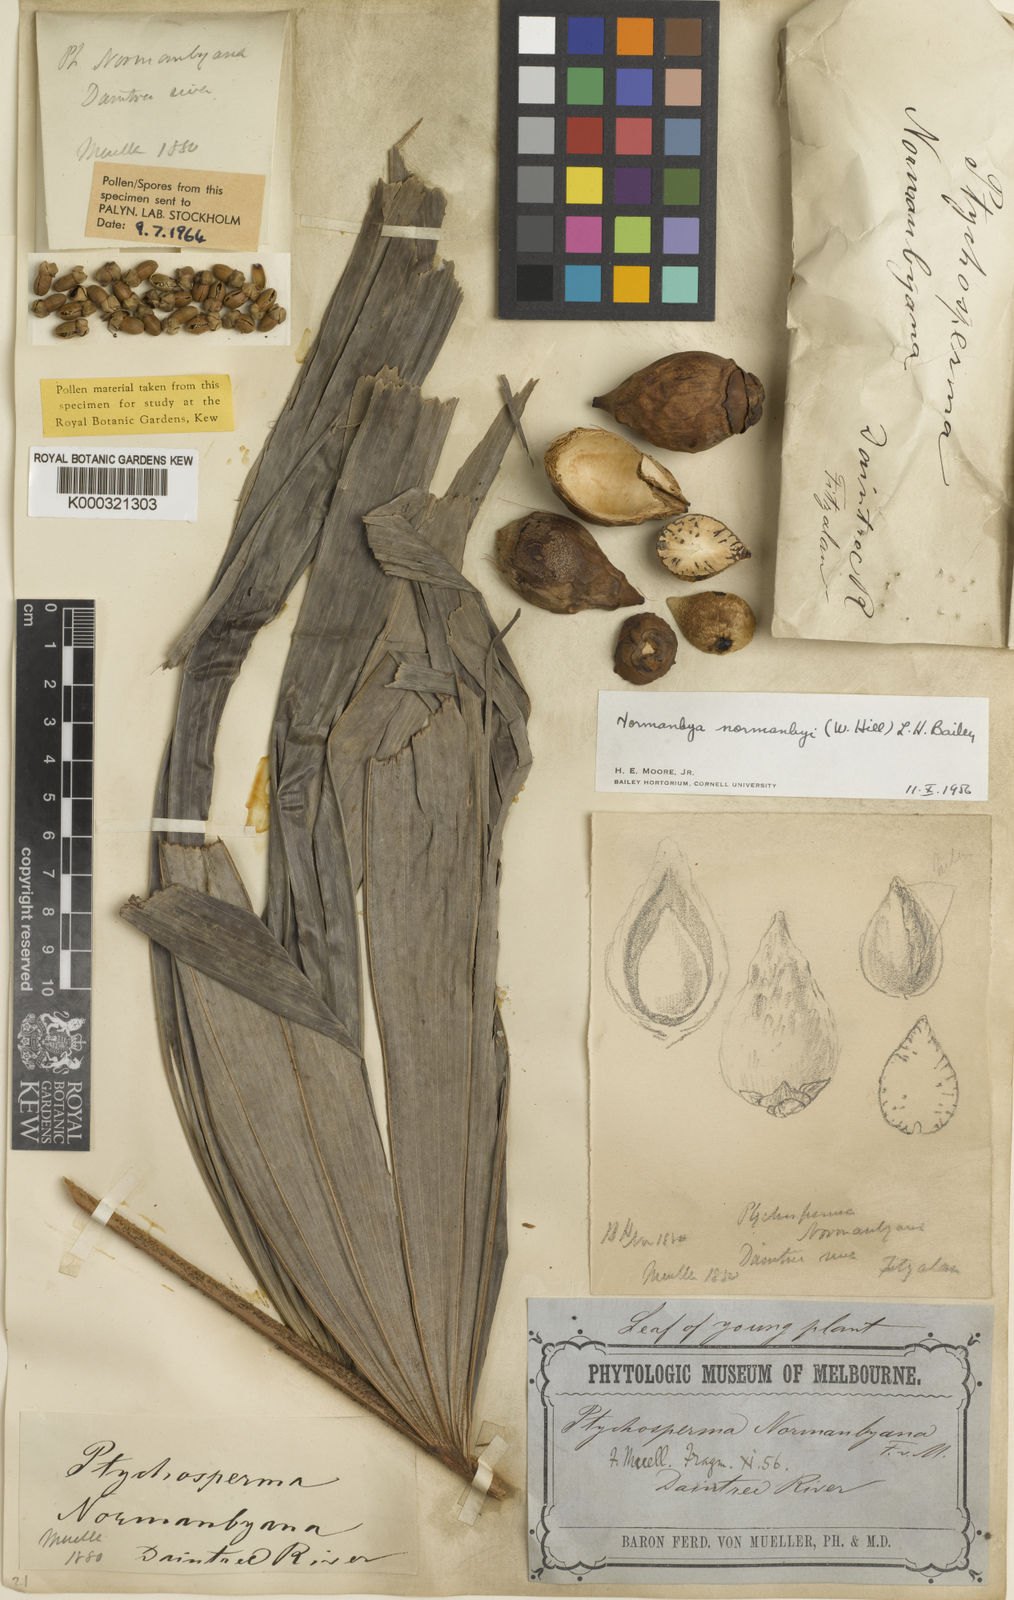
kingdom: Plantae
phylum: Tracheophyta
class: Liliopsida
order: Arecales
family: Arecaceae
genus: Normanbya
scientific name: Normanbya normanbyi
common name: Black palm
